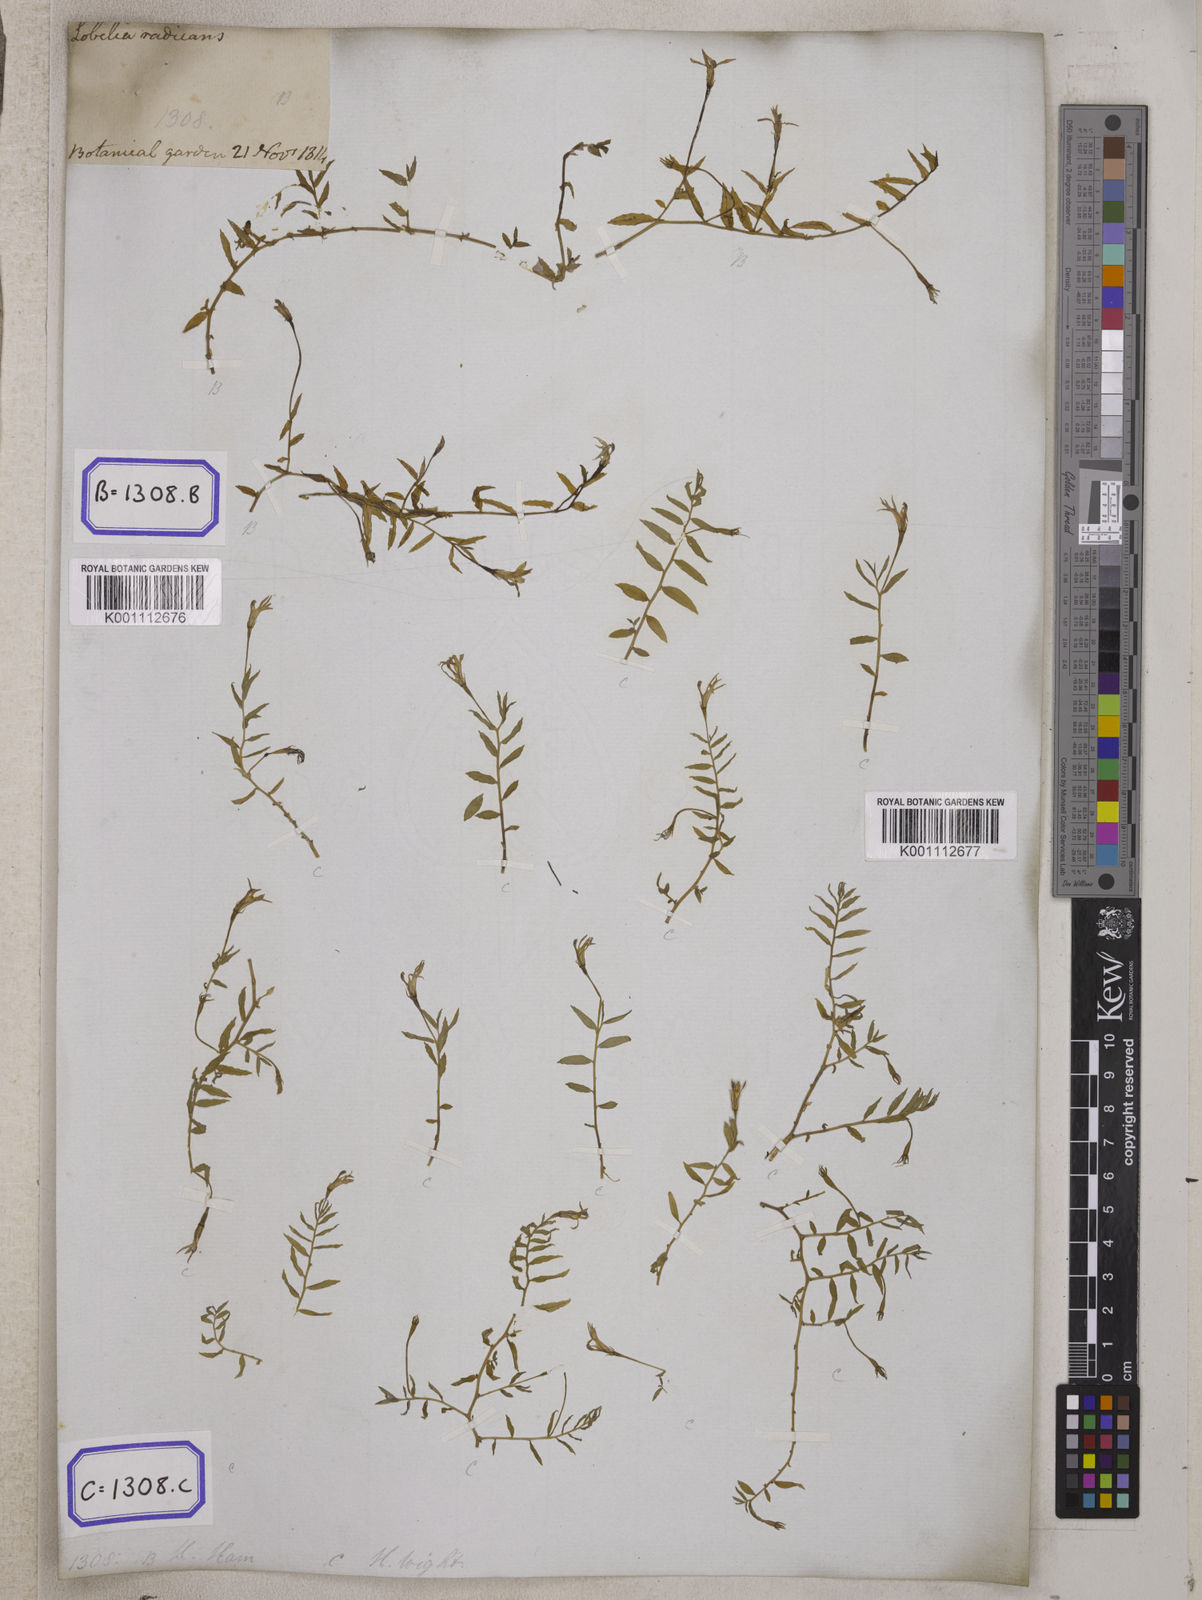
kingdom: Plantae
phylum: Tracheophyta
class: Magnoliopsida
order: Asterales
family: Campanulaceae
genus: Lobelia
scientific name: Lobelia chinensis
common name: Chinese lobelia
